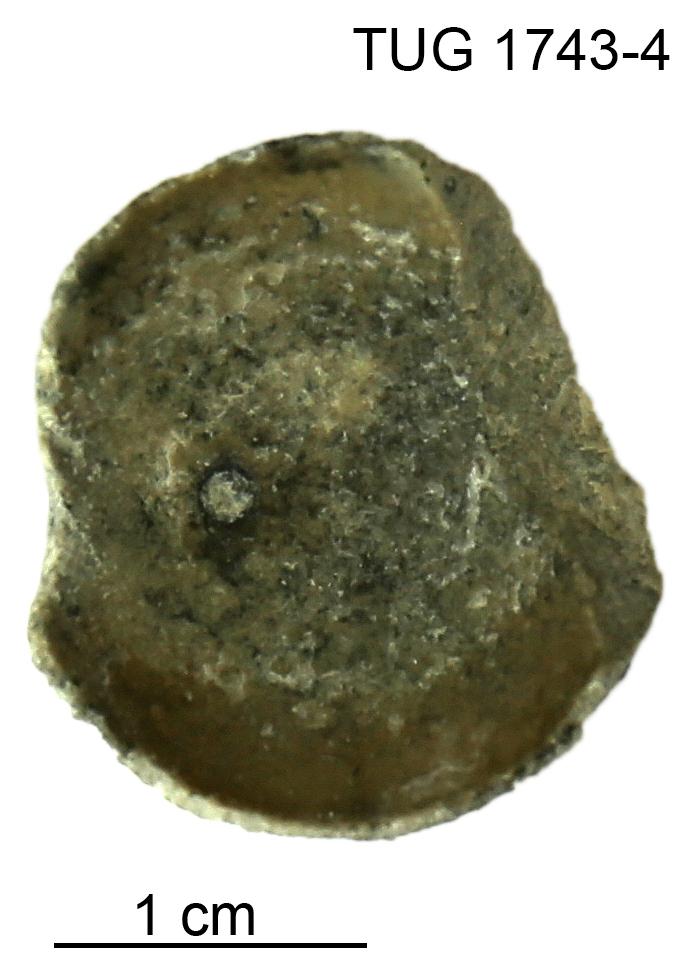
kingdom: Animalia
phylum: Mollusca
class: Cephalopoda
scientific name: Cephalopoda
